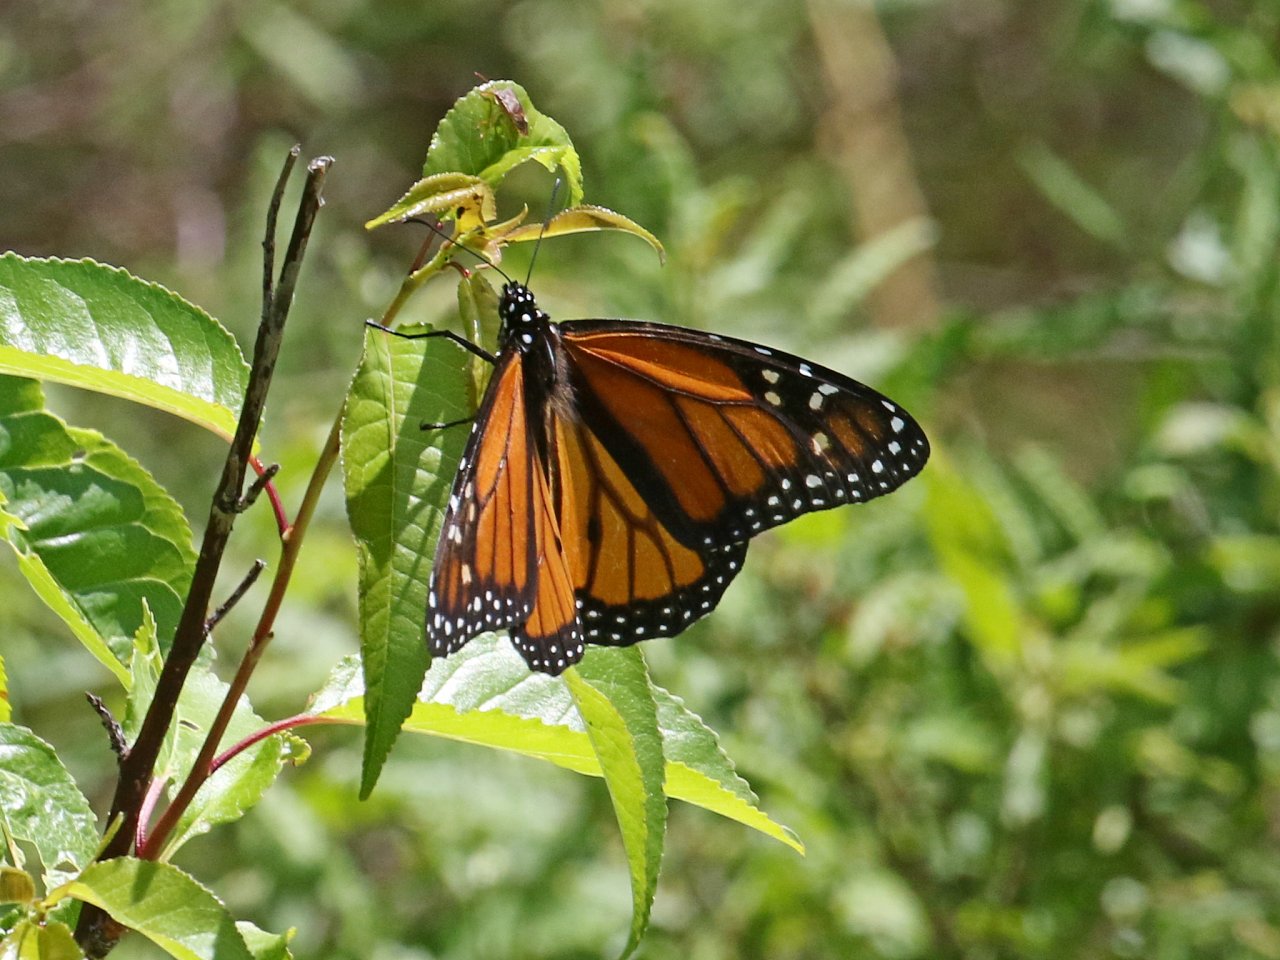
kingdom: Animalia
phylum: Arthropoda
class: Insecta
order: Lepidoptera
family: Nymphalidae
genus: Danaus
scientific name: Danaus plexippus
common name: Monarch
